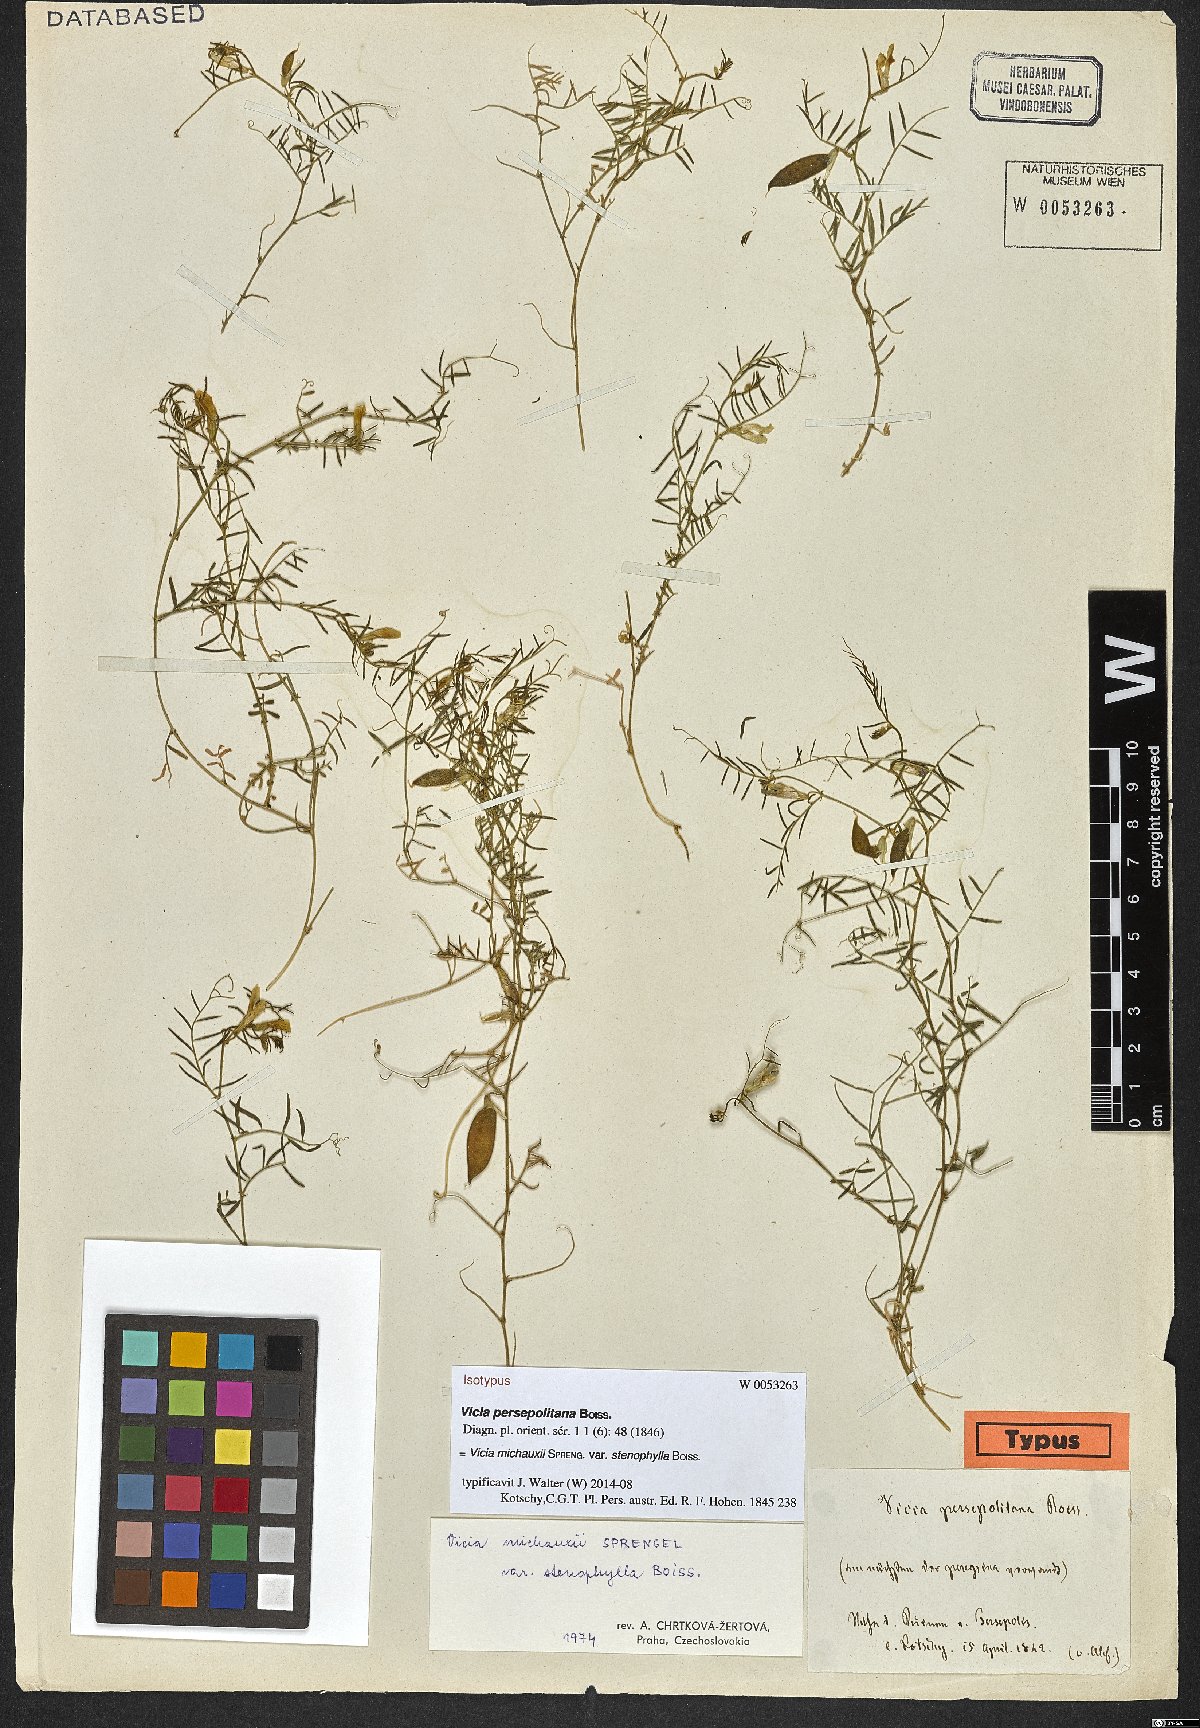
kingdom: Plantae
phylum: Tracheophyta
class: Magnoliopsida
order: Fabales
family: Fabaceae
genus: Vicia
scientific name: Vicia michauxii
